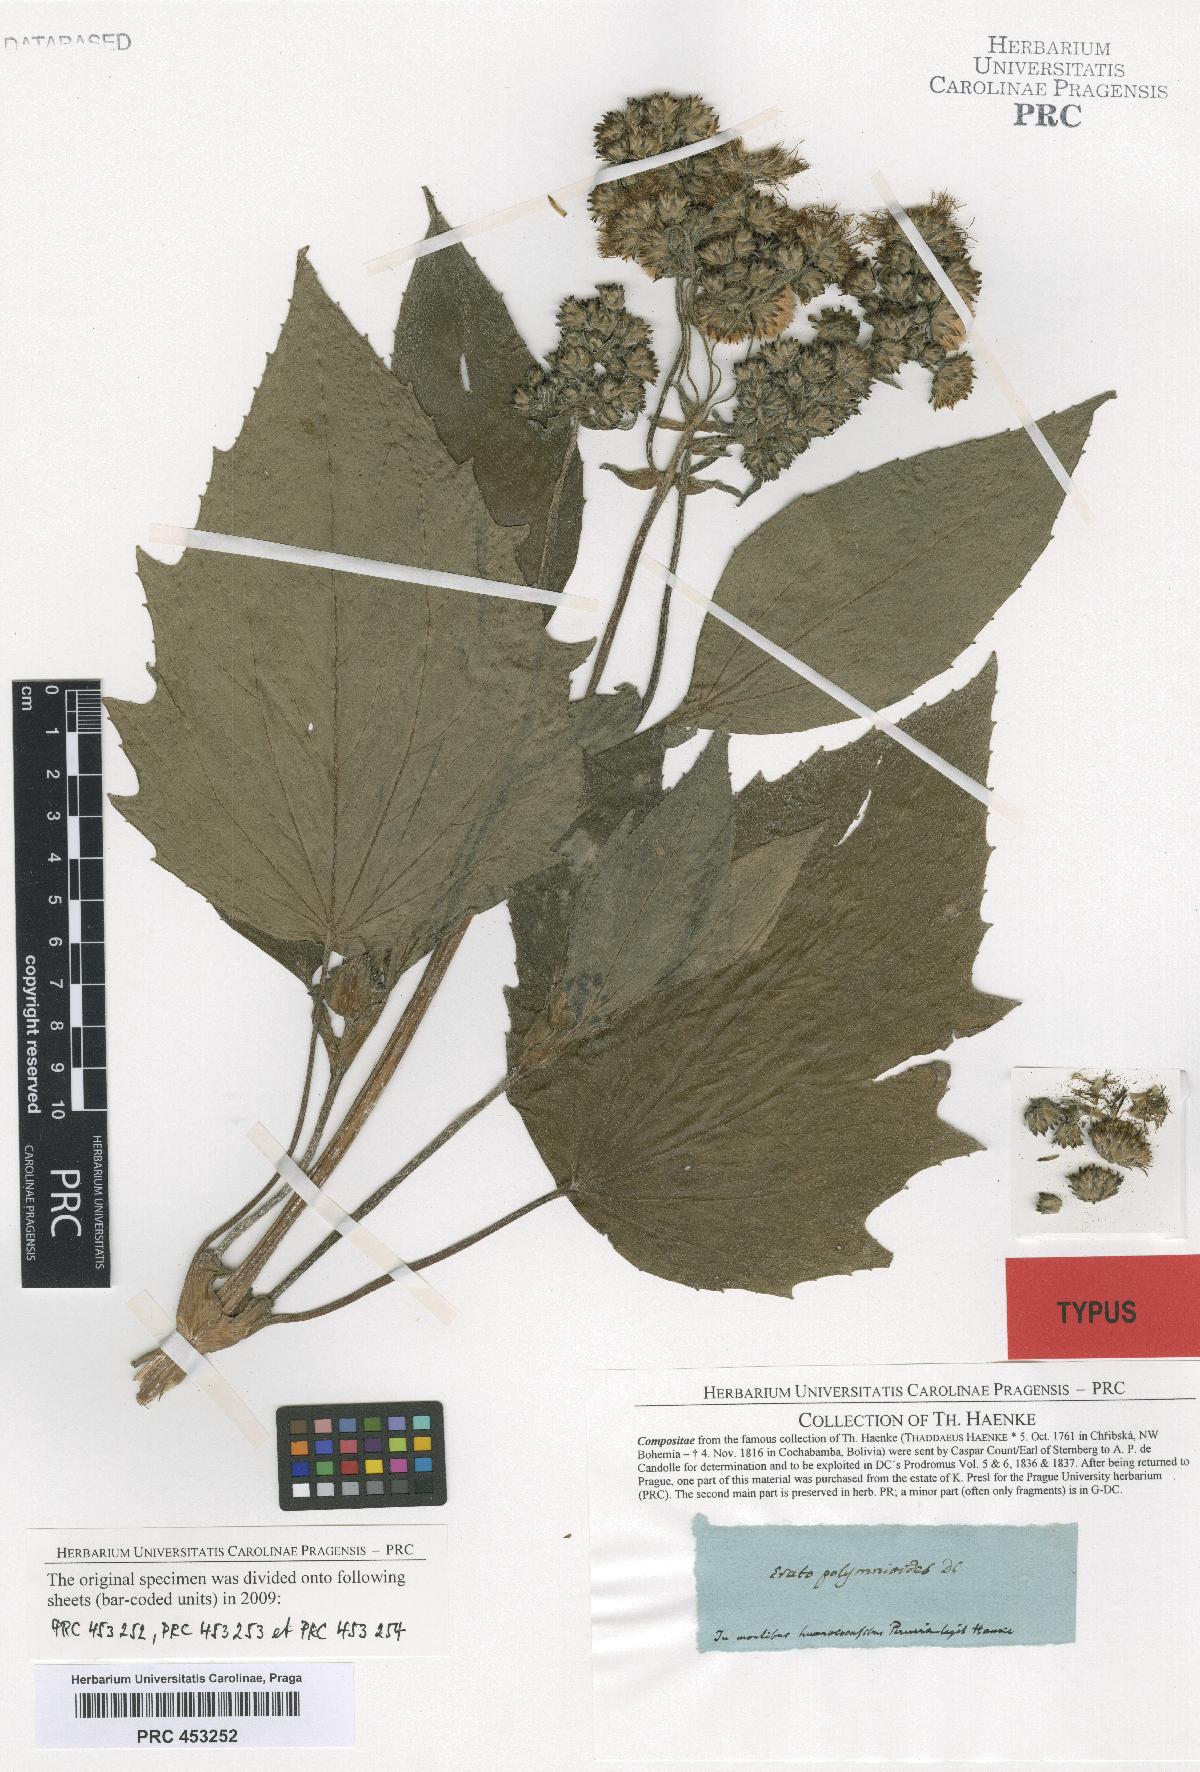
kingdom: Plantae
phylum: Tracheophyta
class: Magnoliopsida
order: Asterales
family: Asteraceae
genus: Erato
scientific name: Erato polymnioides
